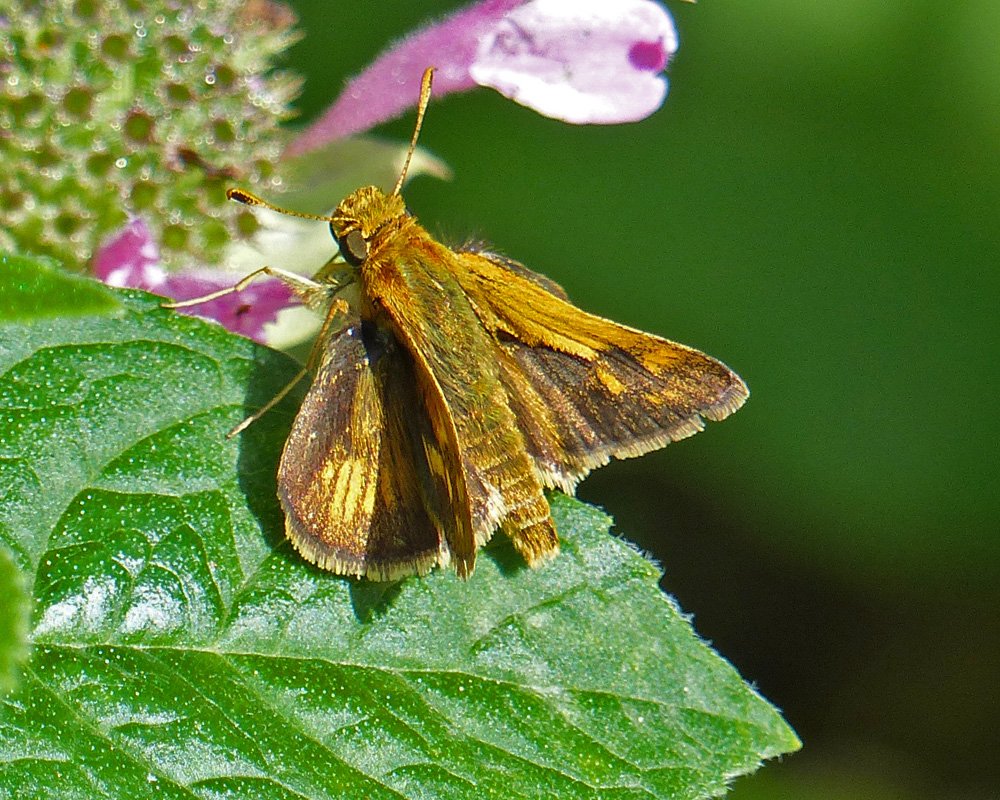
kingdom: Animalia
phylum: Arthropoda
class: Insecta
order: Lepidoptera
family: Hesperiidae
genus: Polites
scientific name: Polites coras
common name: Peck's Skipper
